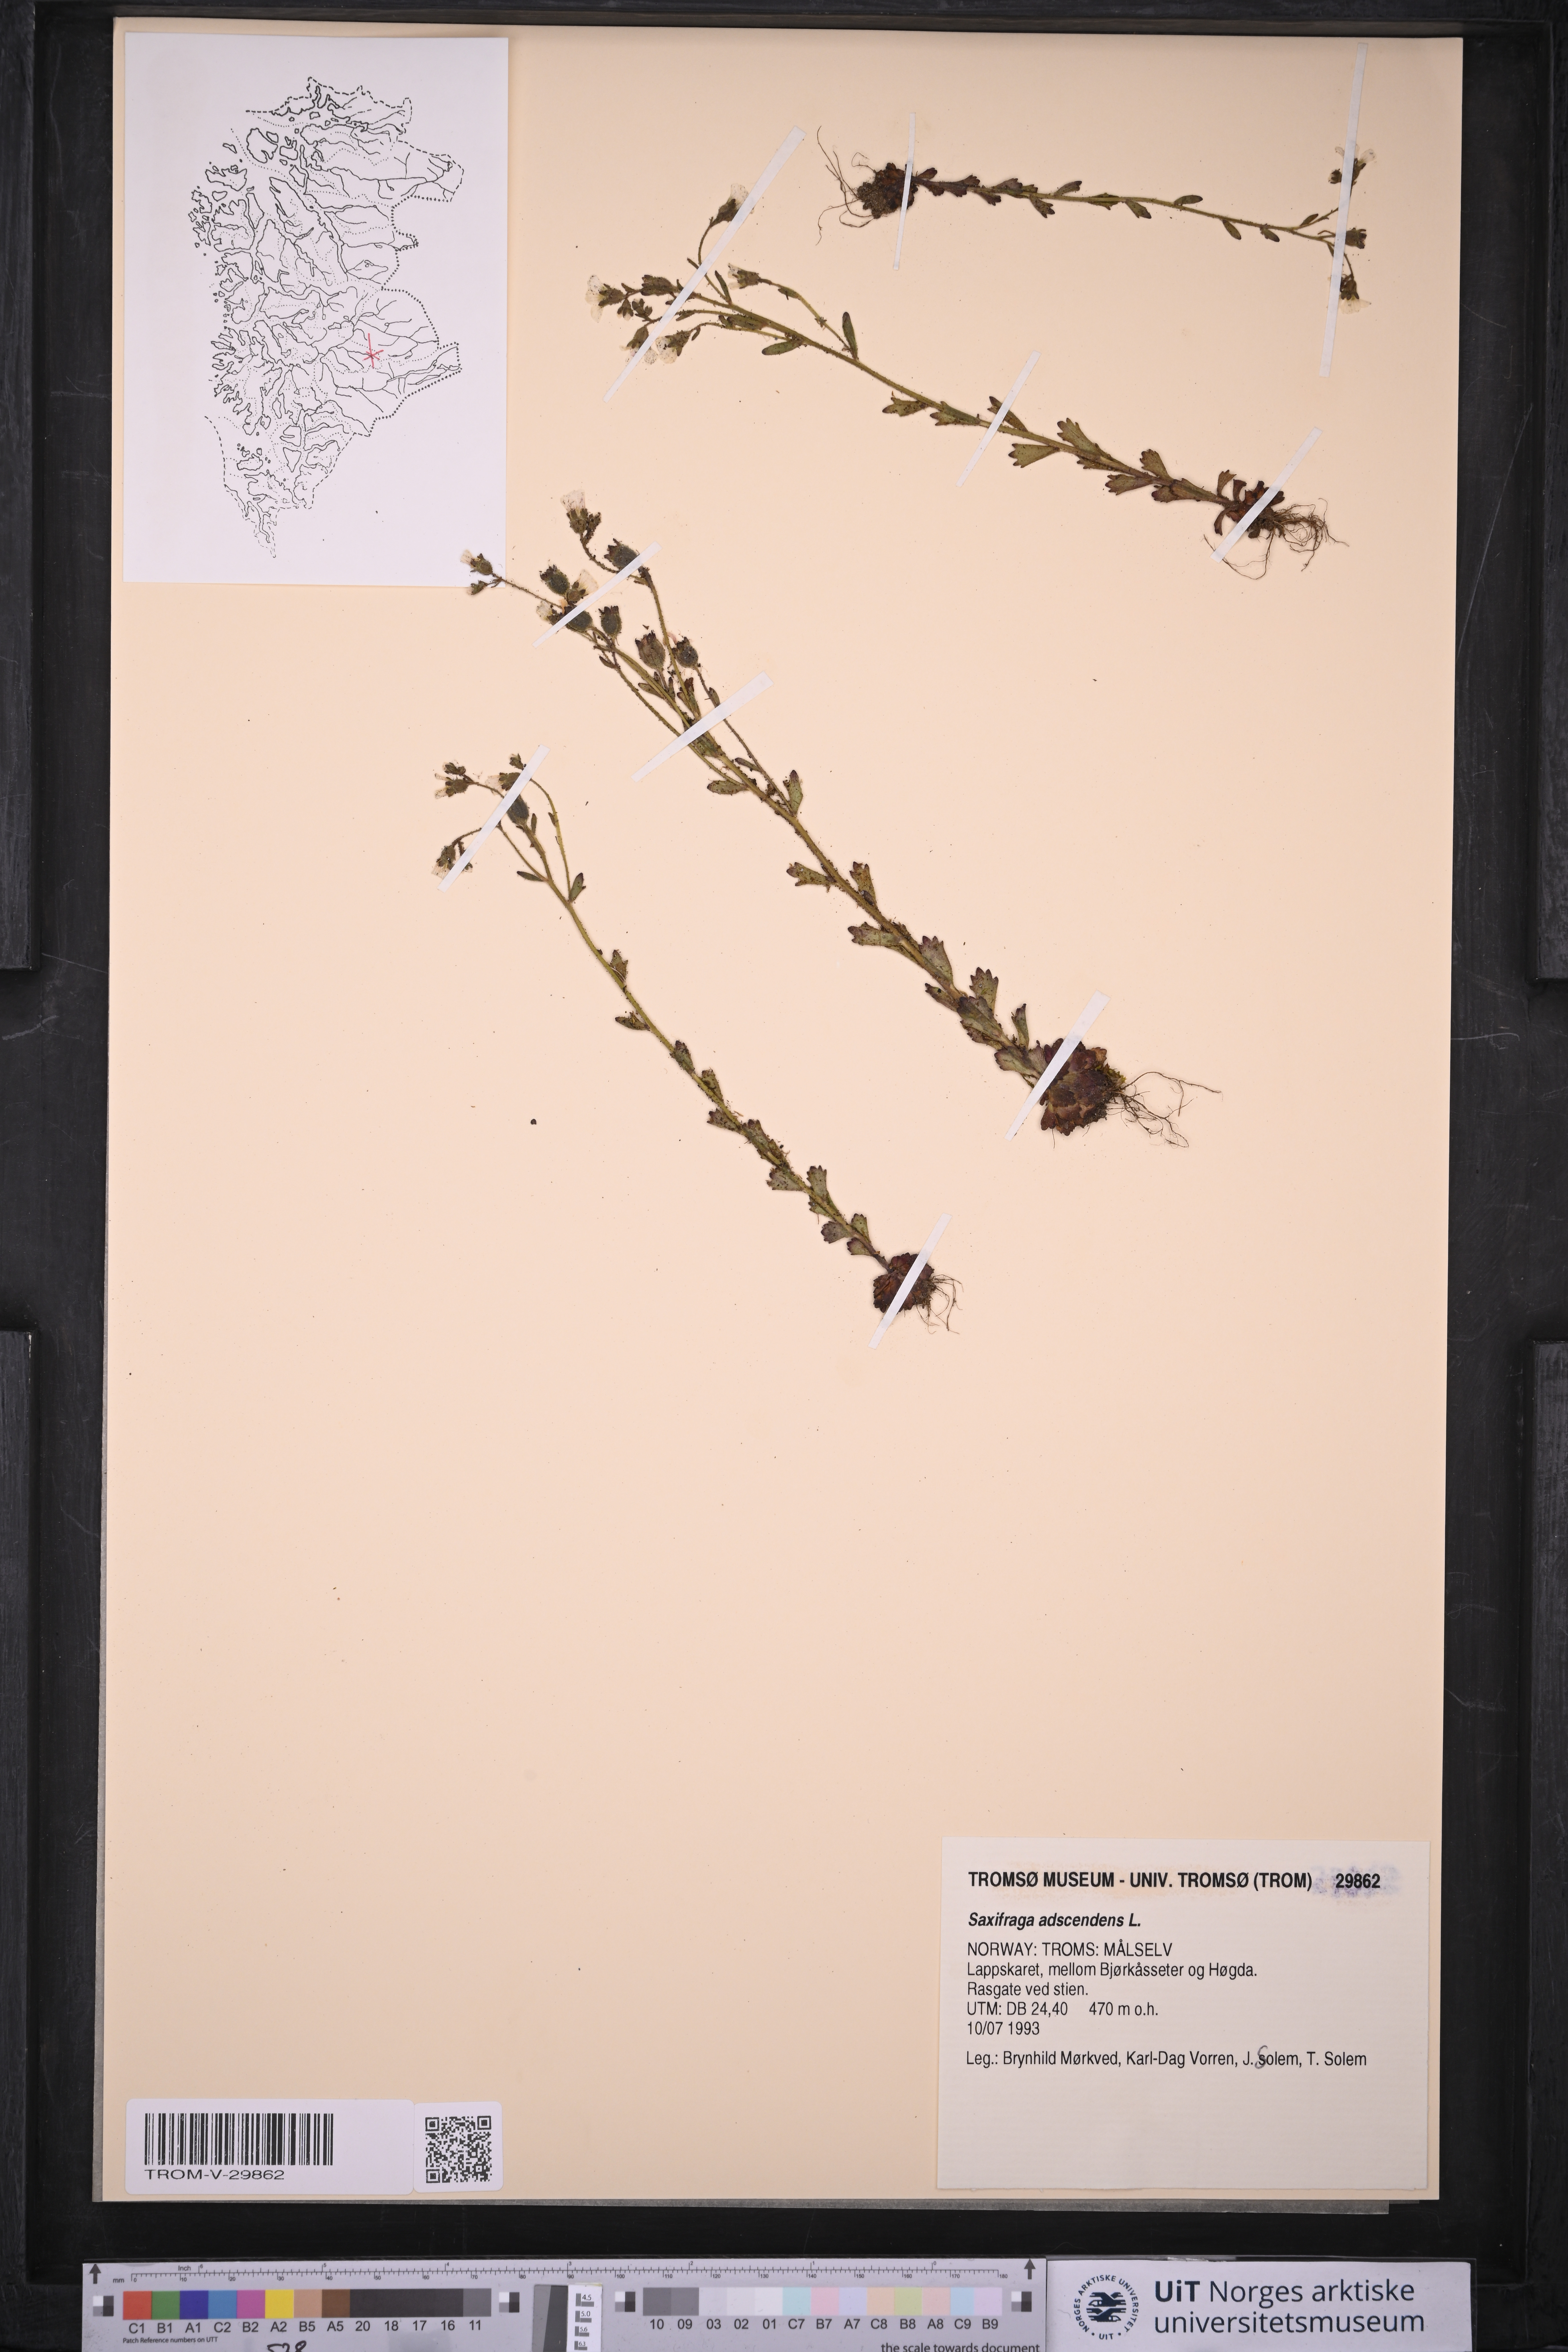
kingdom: Plantae
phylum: Tracheophyta
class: Magnoliopsida
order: Saxifragales
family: Saxifragaceae
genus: Saxifraga
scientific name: Saxifraga adscendens
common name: Ascending saxifrage
